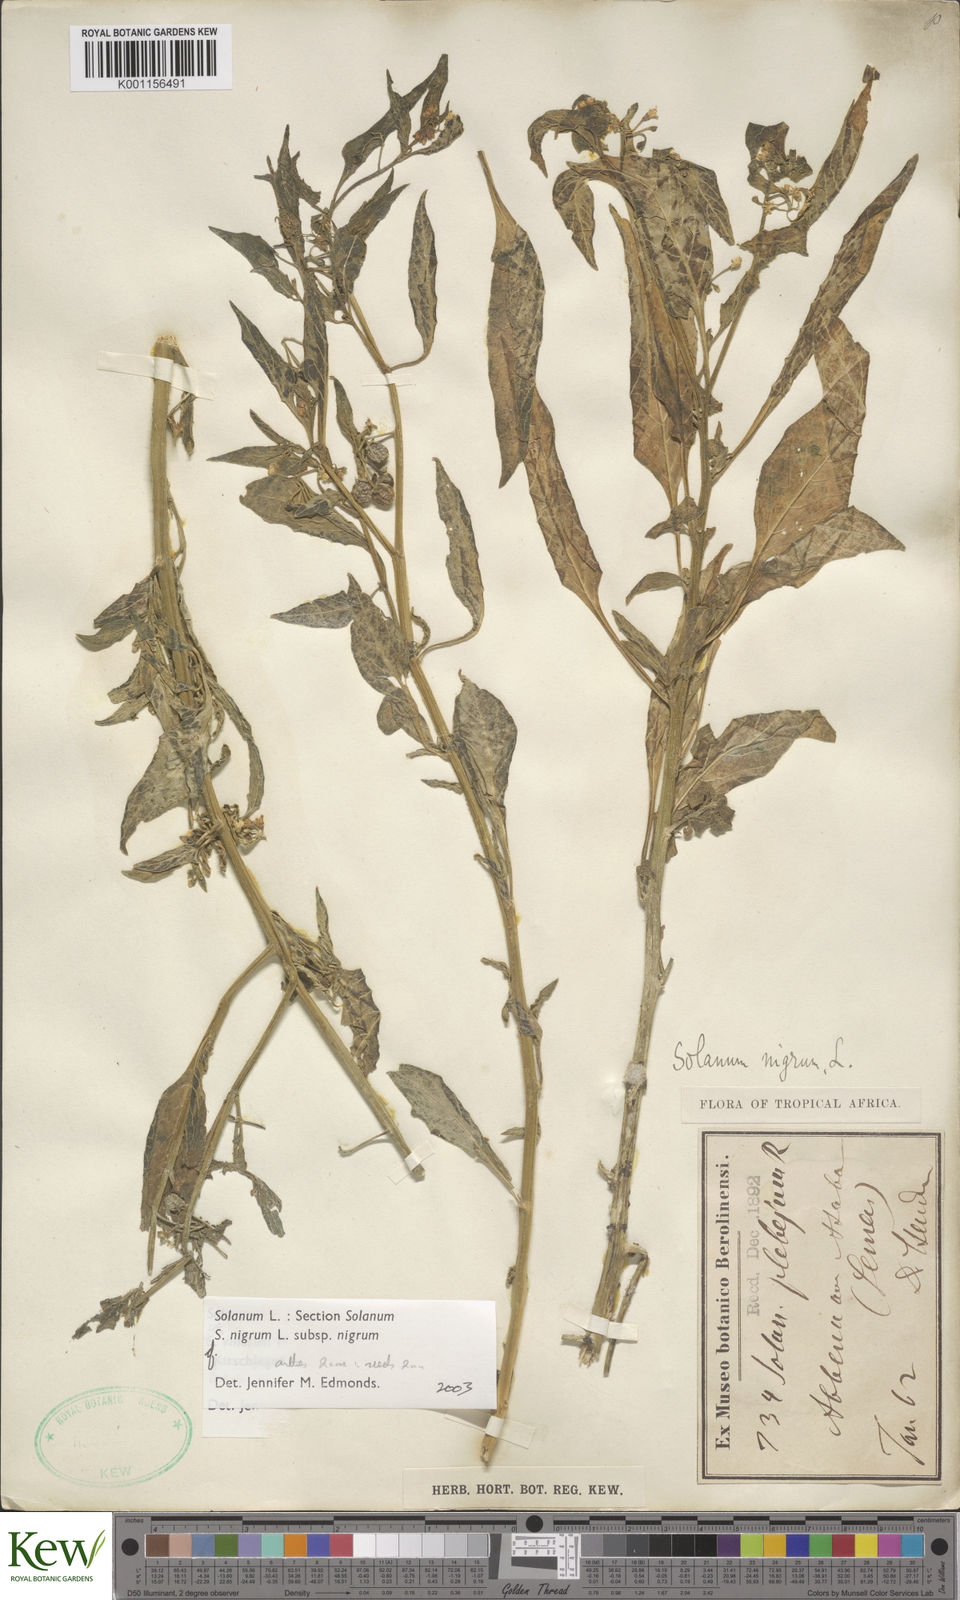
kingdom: Plantae
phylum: Tracheophyta
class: Magnoliopsida
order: Solanales
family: Solanaceae
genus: Solanum
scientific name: Solanum villosum
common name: Red nightshade
